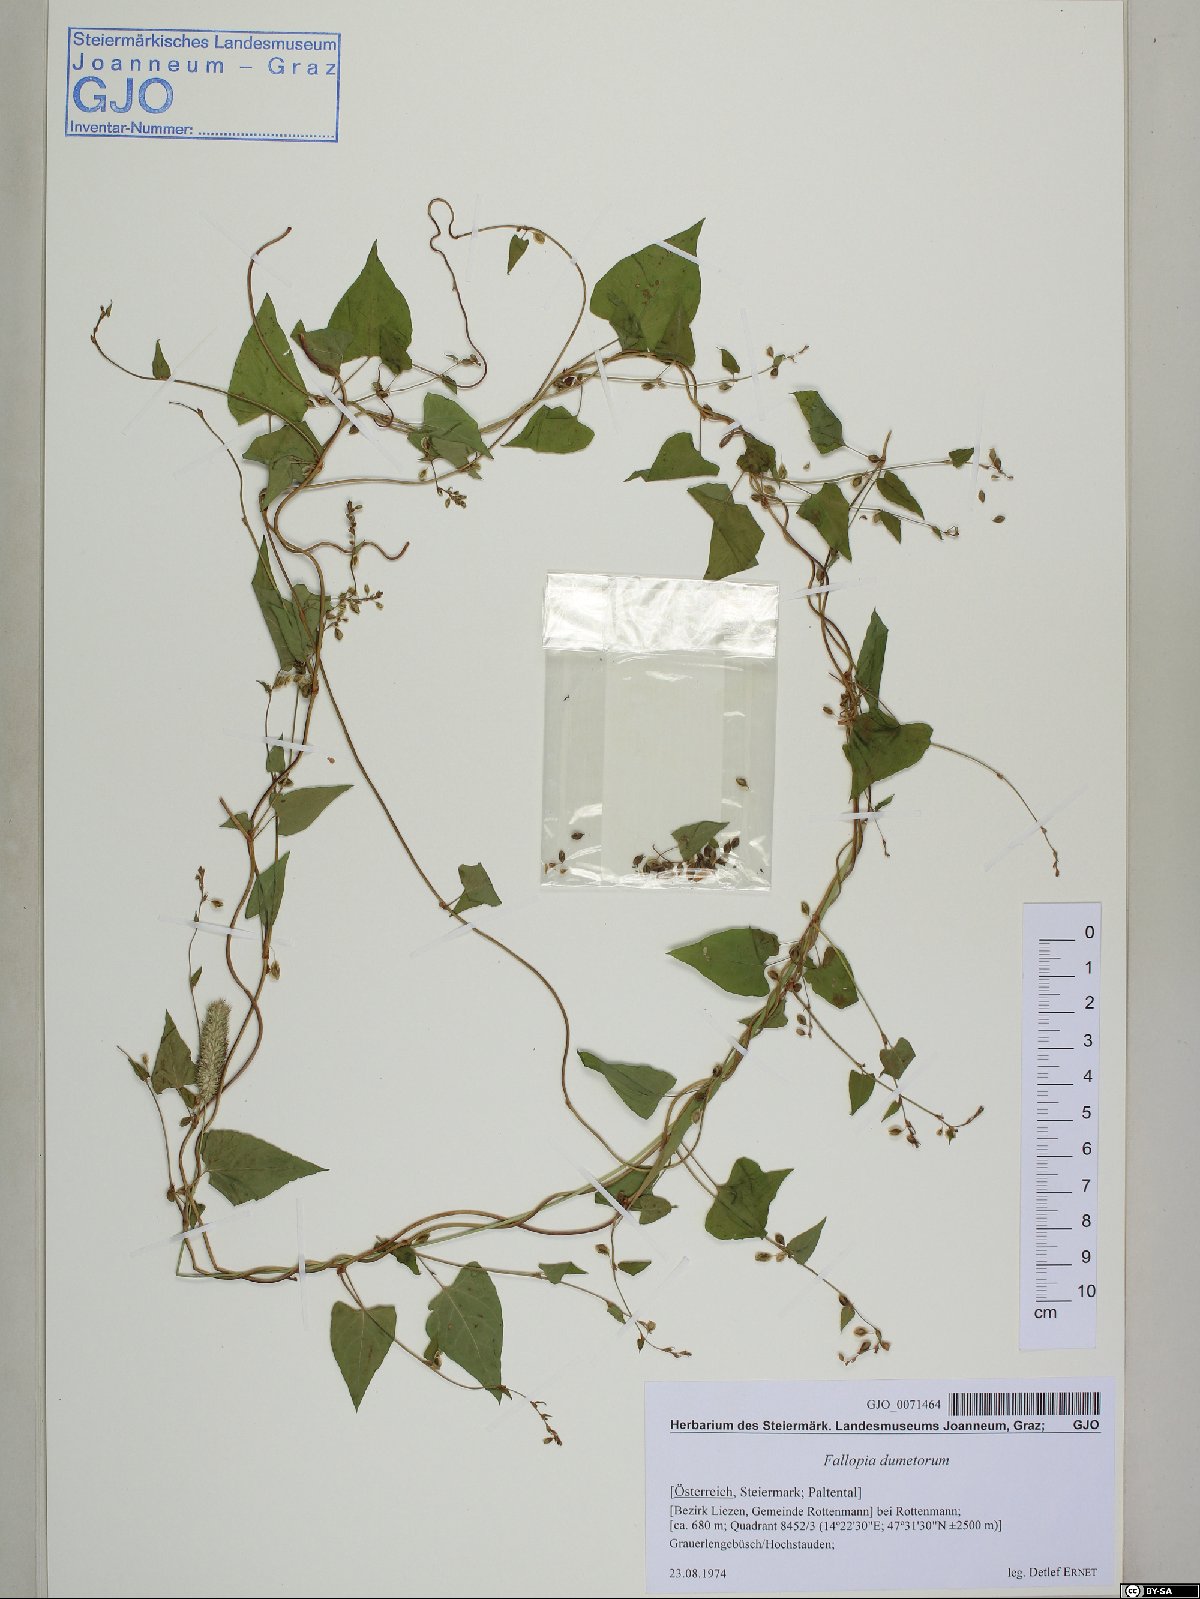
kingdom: Plantae
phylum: Tracheophyta
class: Magnoliopsida
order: Caryophyllales
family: Polygonaceae
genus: Fallopia
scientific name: Fallopia dumetorum
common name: Copse-bindweed
